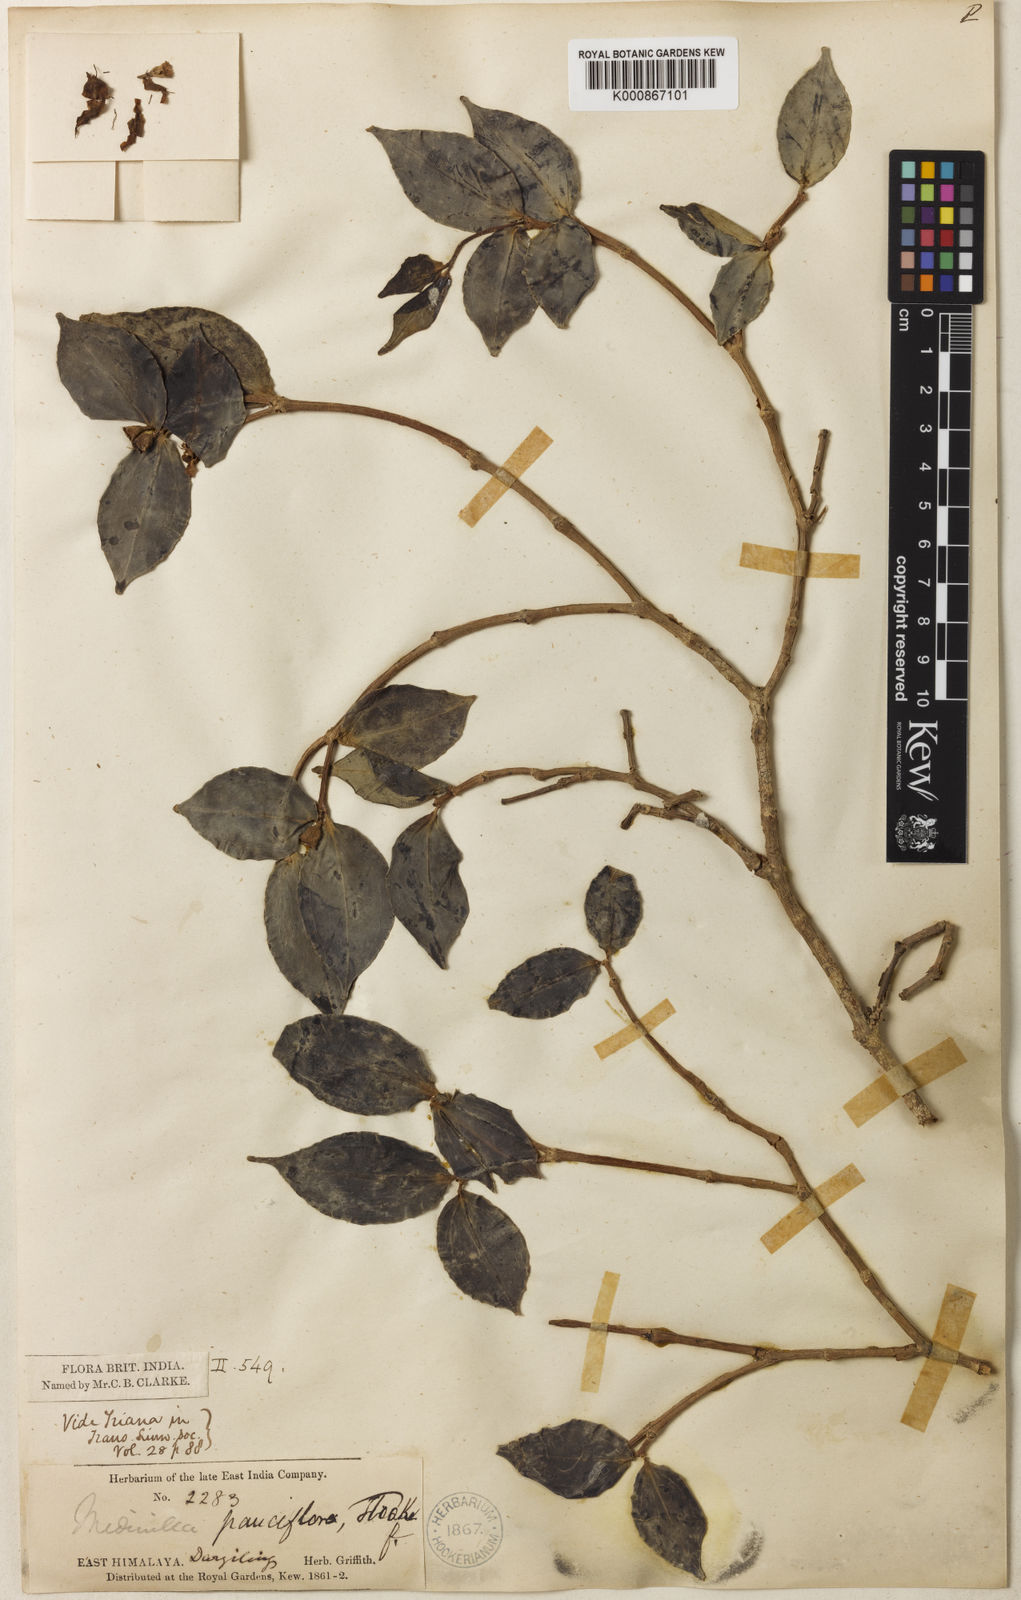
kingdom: Plantae
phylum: Tracheophyta
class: Magnoliopsida
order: Myrtales
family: Melastomataceae
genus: Medinilla
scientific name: Medinilla pauciflora
